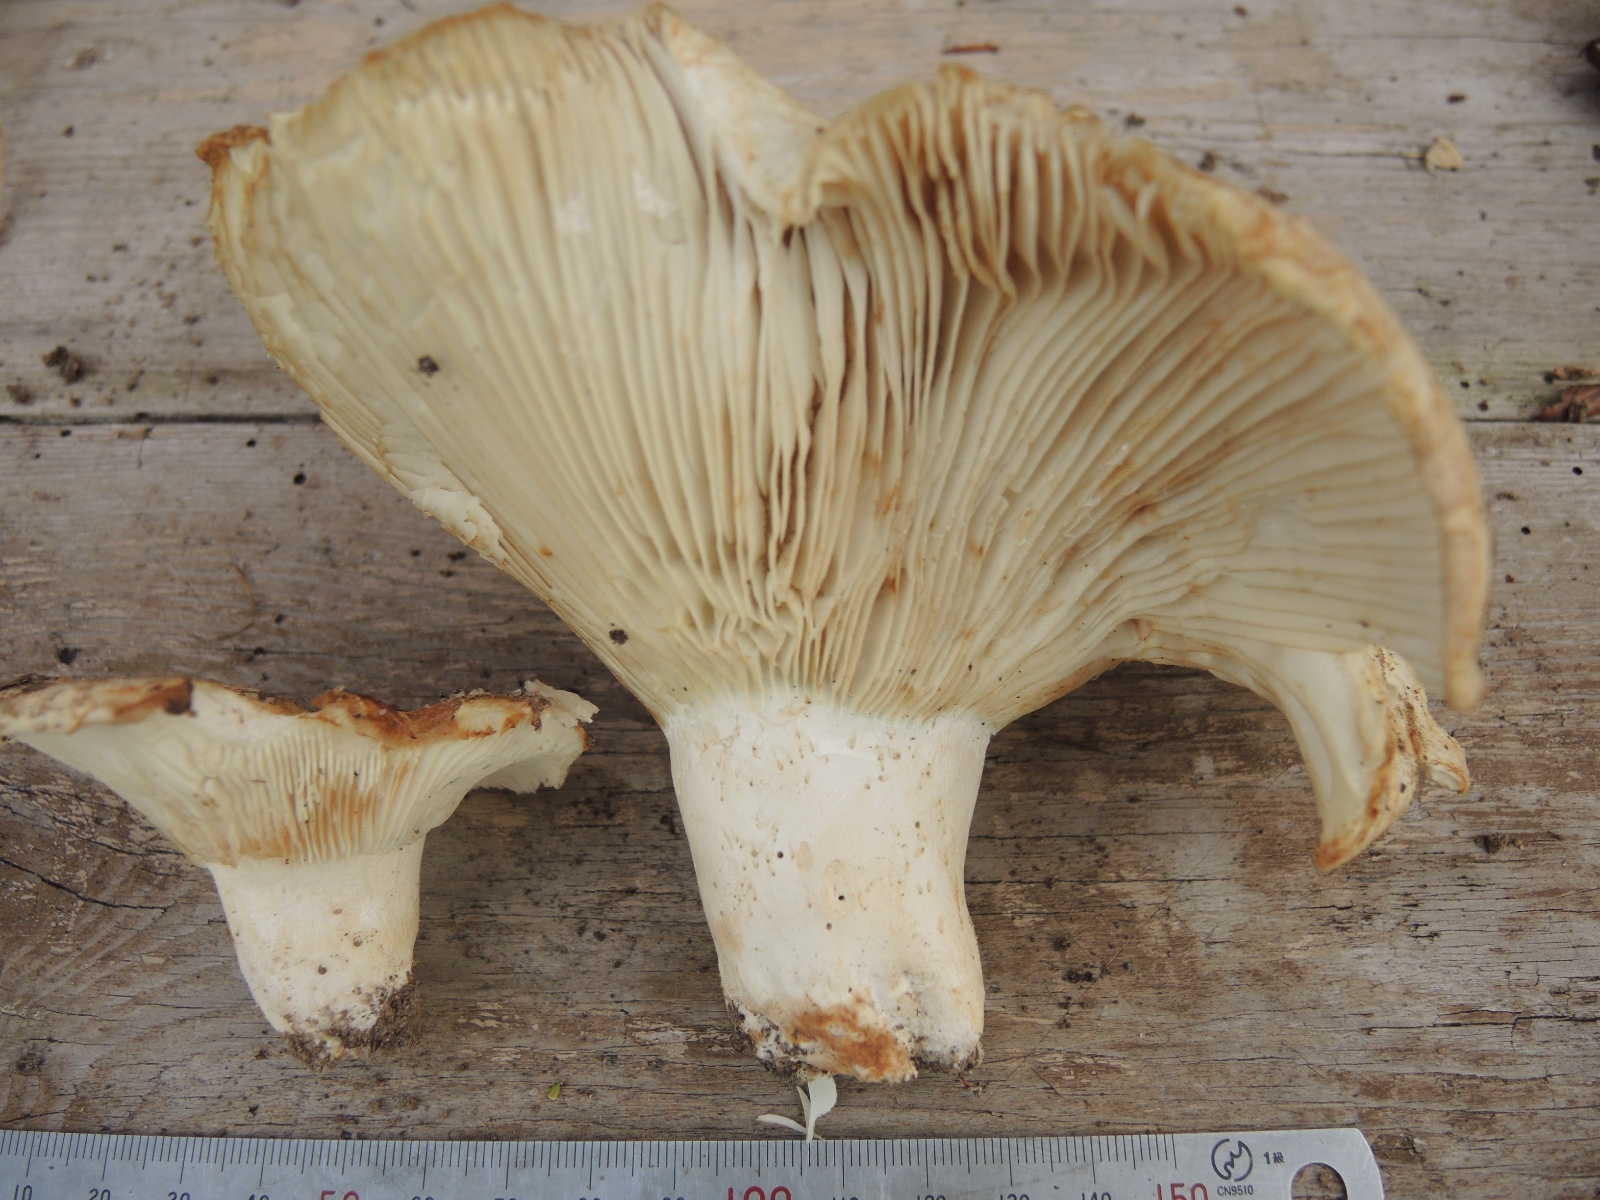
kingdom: Fungi
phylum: Basidiomycota
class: Agaricomycetes
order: Russulales
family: Russulaceae
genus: Russula
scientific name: Russula chloroides
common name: grønhalset tragt-skørhat
